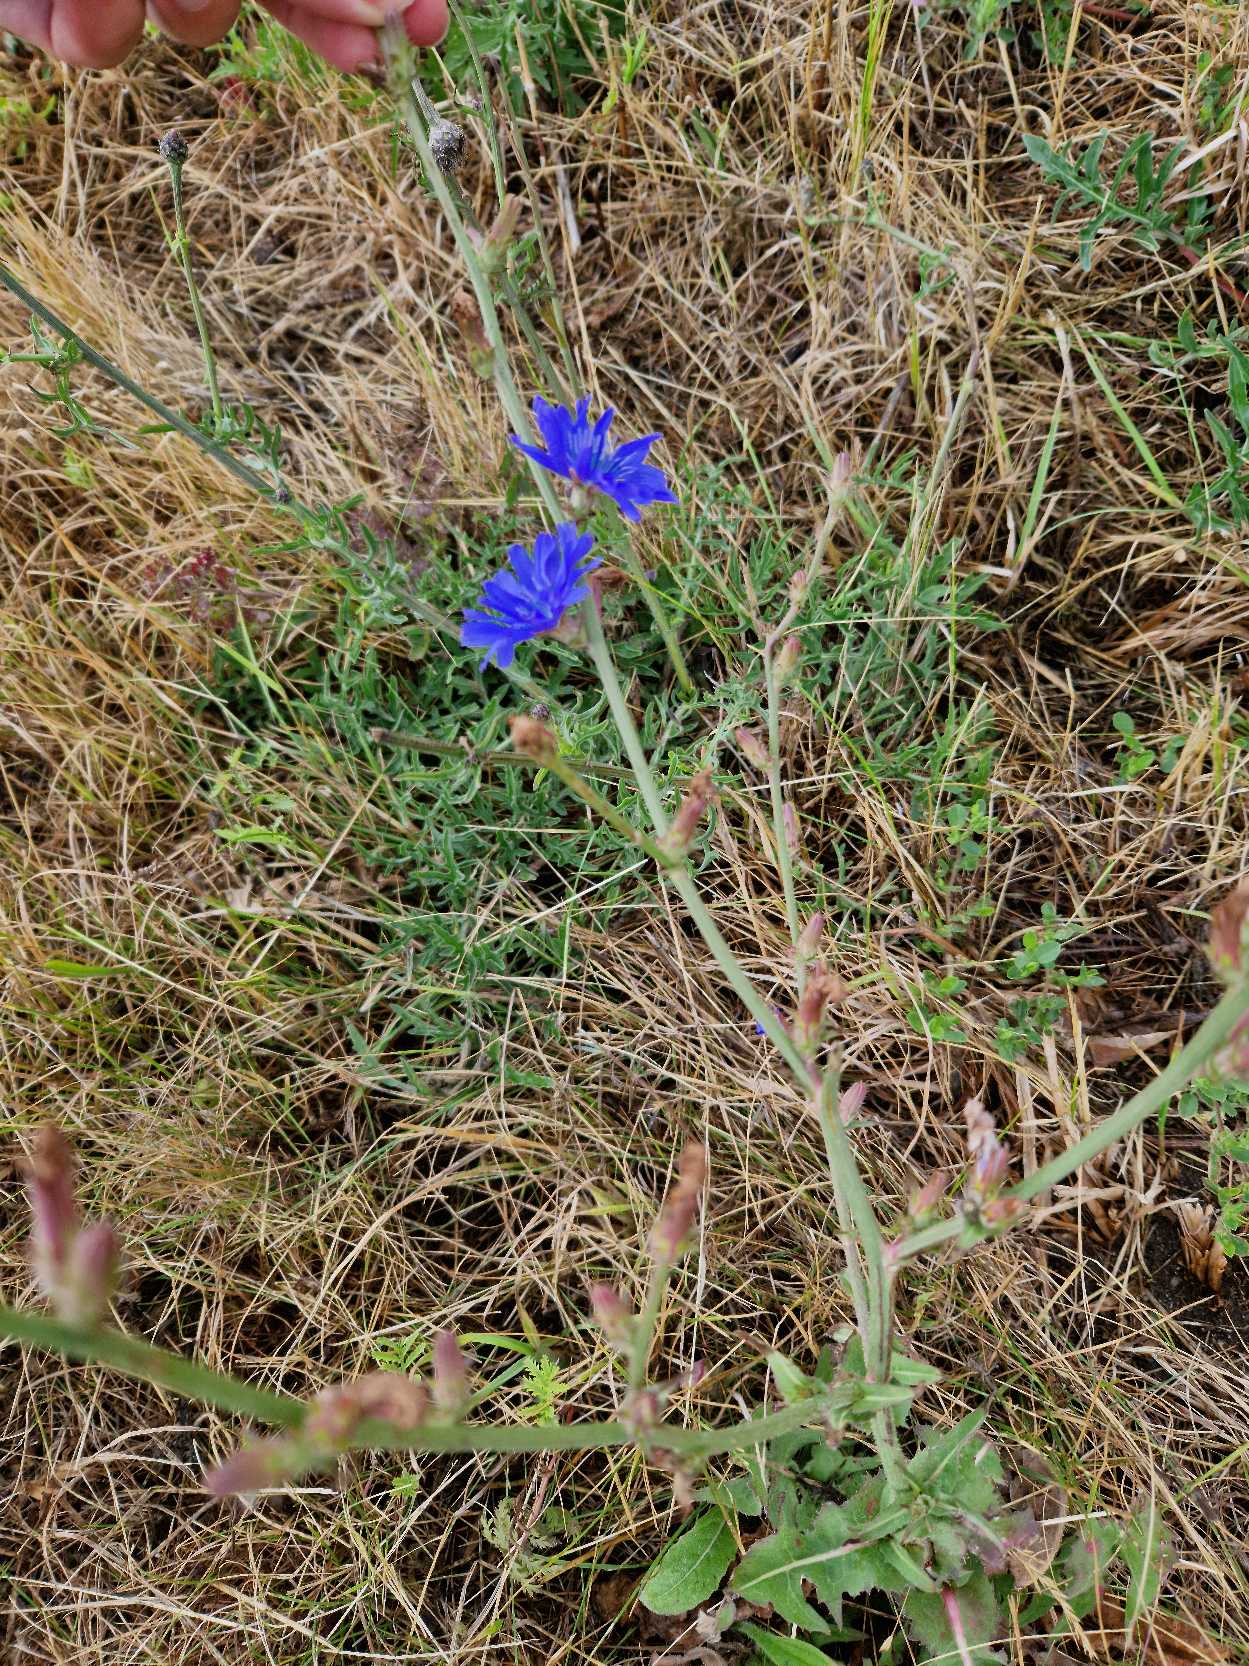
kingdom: Plantae
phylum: Tracheophyta
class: Magnoliopsida
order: Asterales
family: Asteraceae
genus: Cichorium
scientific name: Cichorium intybus
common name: Cikorie
